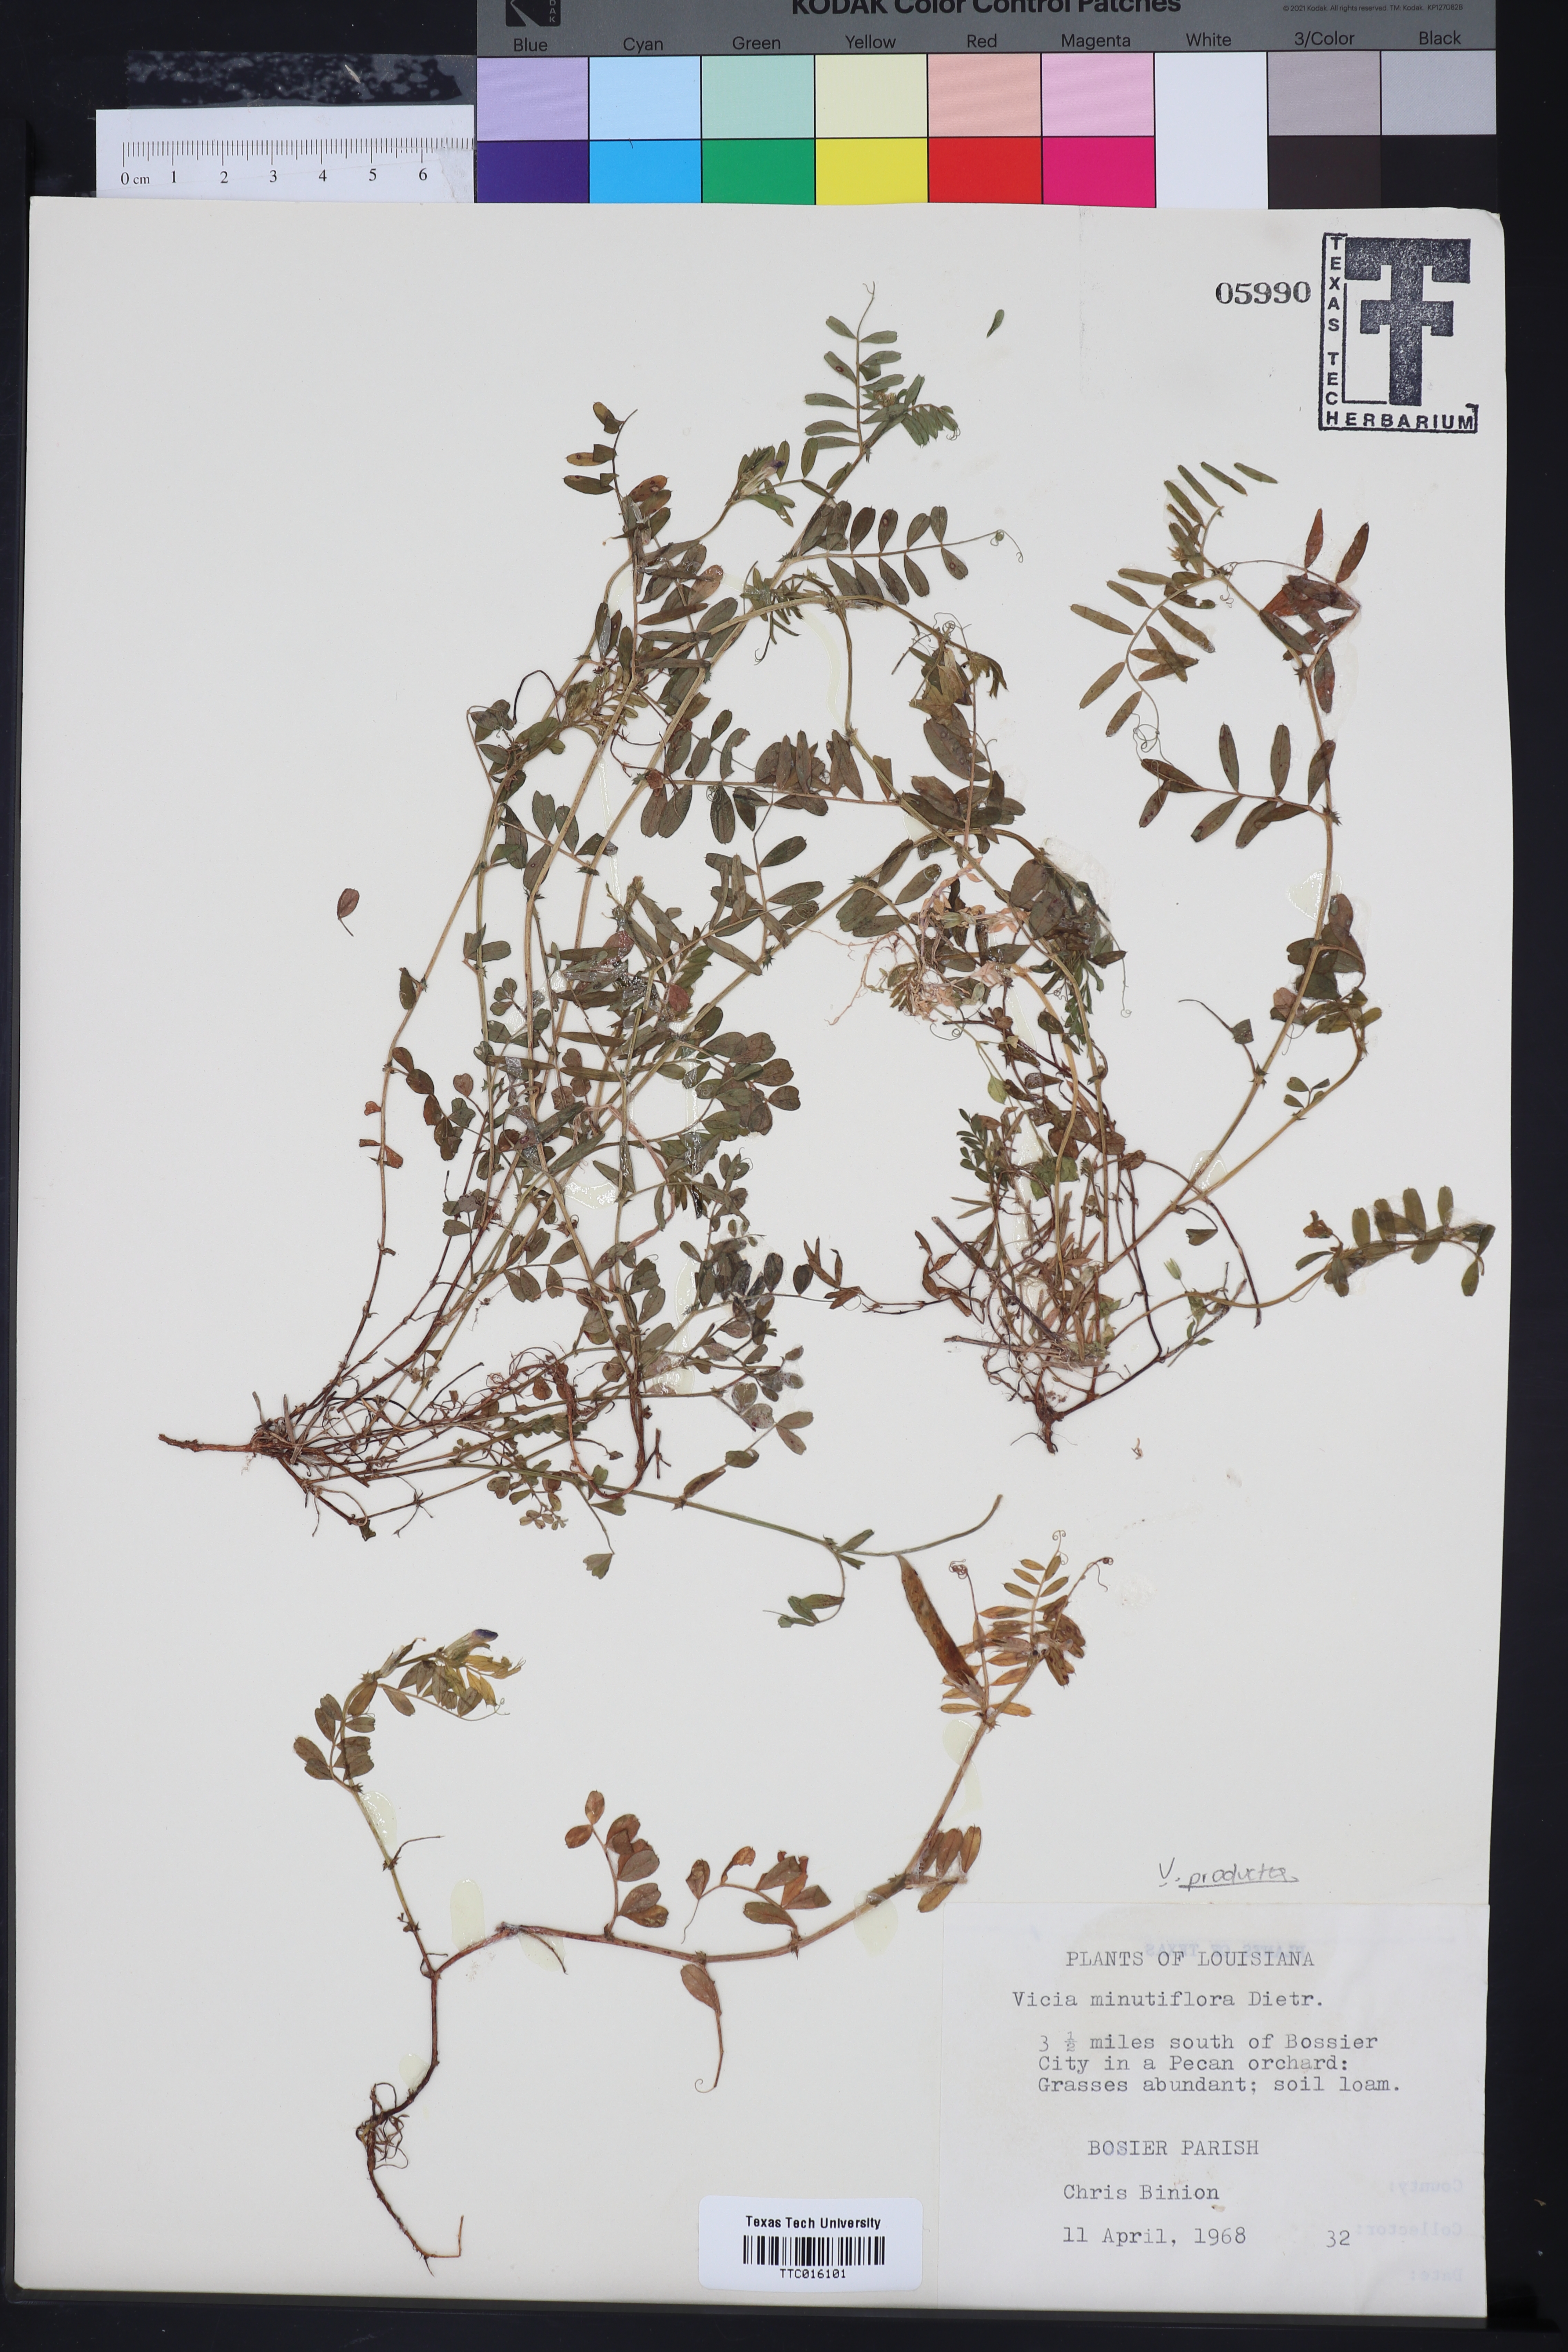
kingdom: Plantae
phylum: Tracheophyta
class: Magnoliopsida
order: Fabales
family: Fabaceae
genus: Vicia
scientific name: Vicia minutiflora
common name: Pygmy-flower vetch
